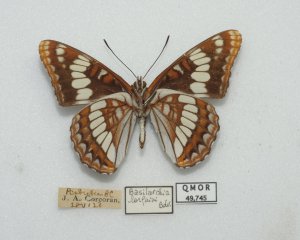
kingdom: Animalia
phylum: Arthropoda
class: Insecta
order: Lepidoptera
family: Nymphalidae
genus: Limenitis
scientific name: Limenitis lorquini
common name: Lorquin's Admiral
